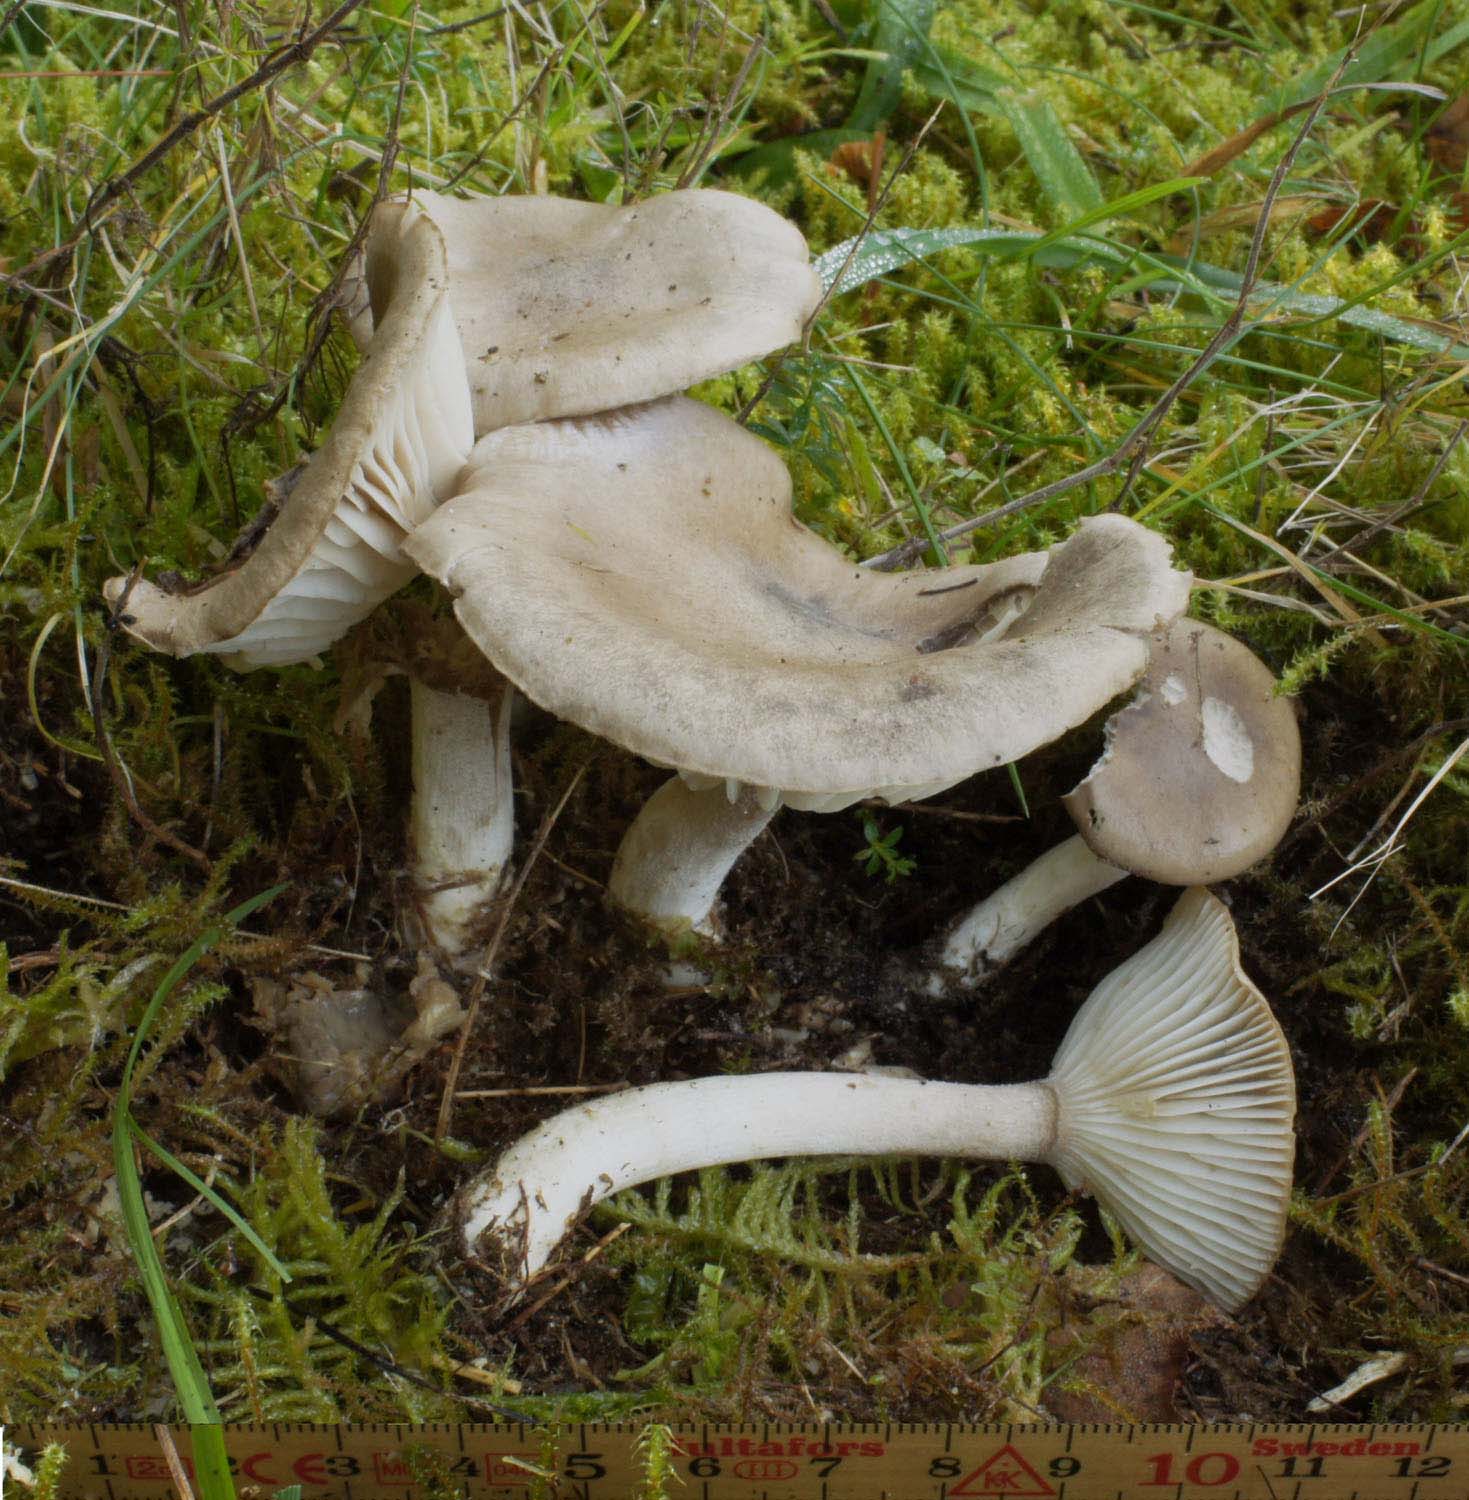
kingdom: Fungi
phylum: Basidiomycota
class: Agaricomycetes
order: Agaricales
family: Hygrophoraceae
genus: Hygrophorus
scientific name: Hygrophorus agathosmus
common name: vellugtende sneglehat
